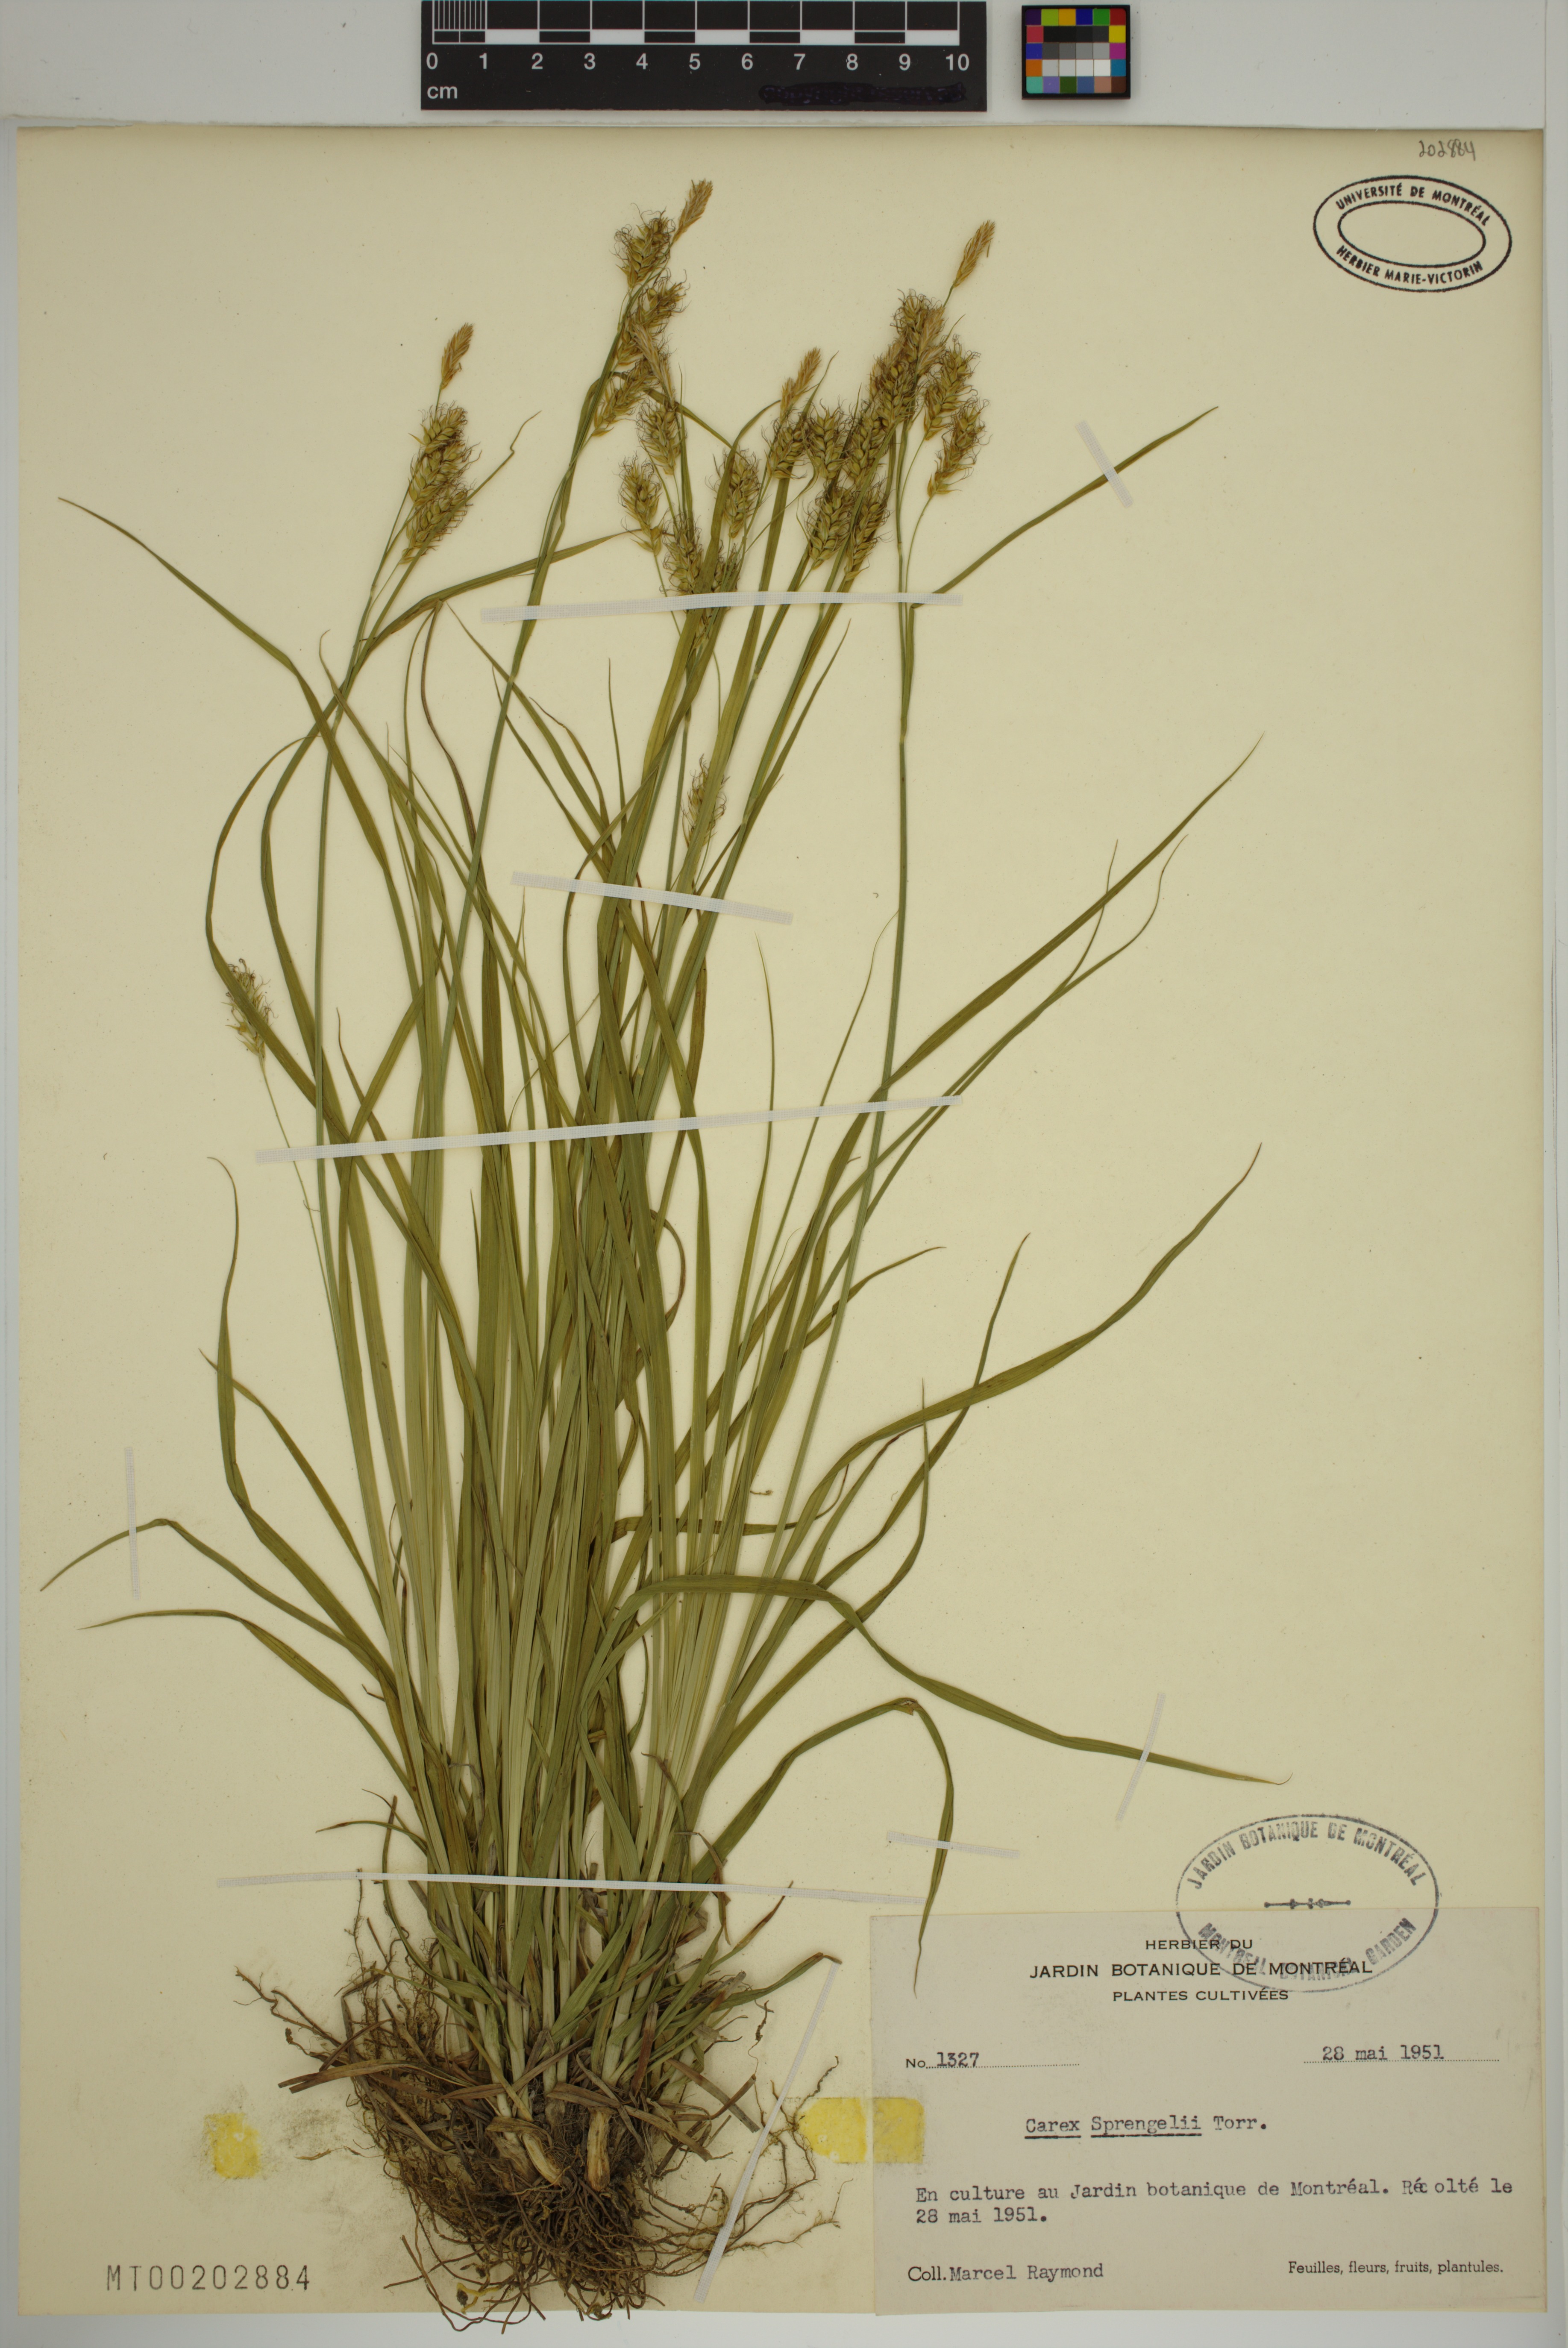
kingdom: Plantae
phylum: Tracheophyta
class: Liliopsida
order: Poales
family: Cyperaceae
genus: Carex
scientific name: Carex sprengelii
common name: Long-beaked sedge
